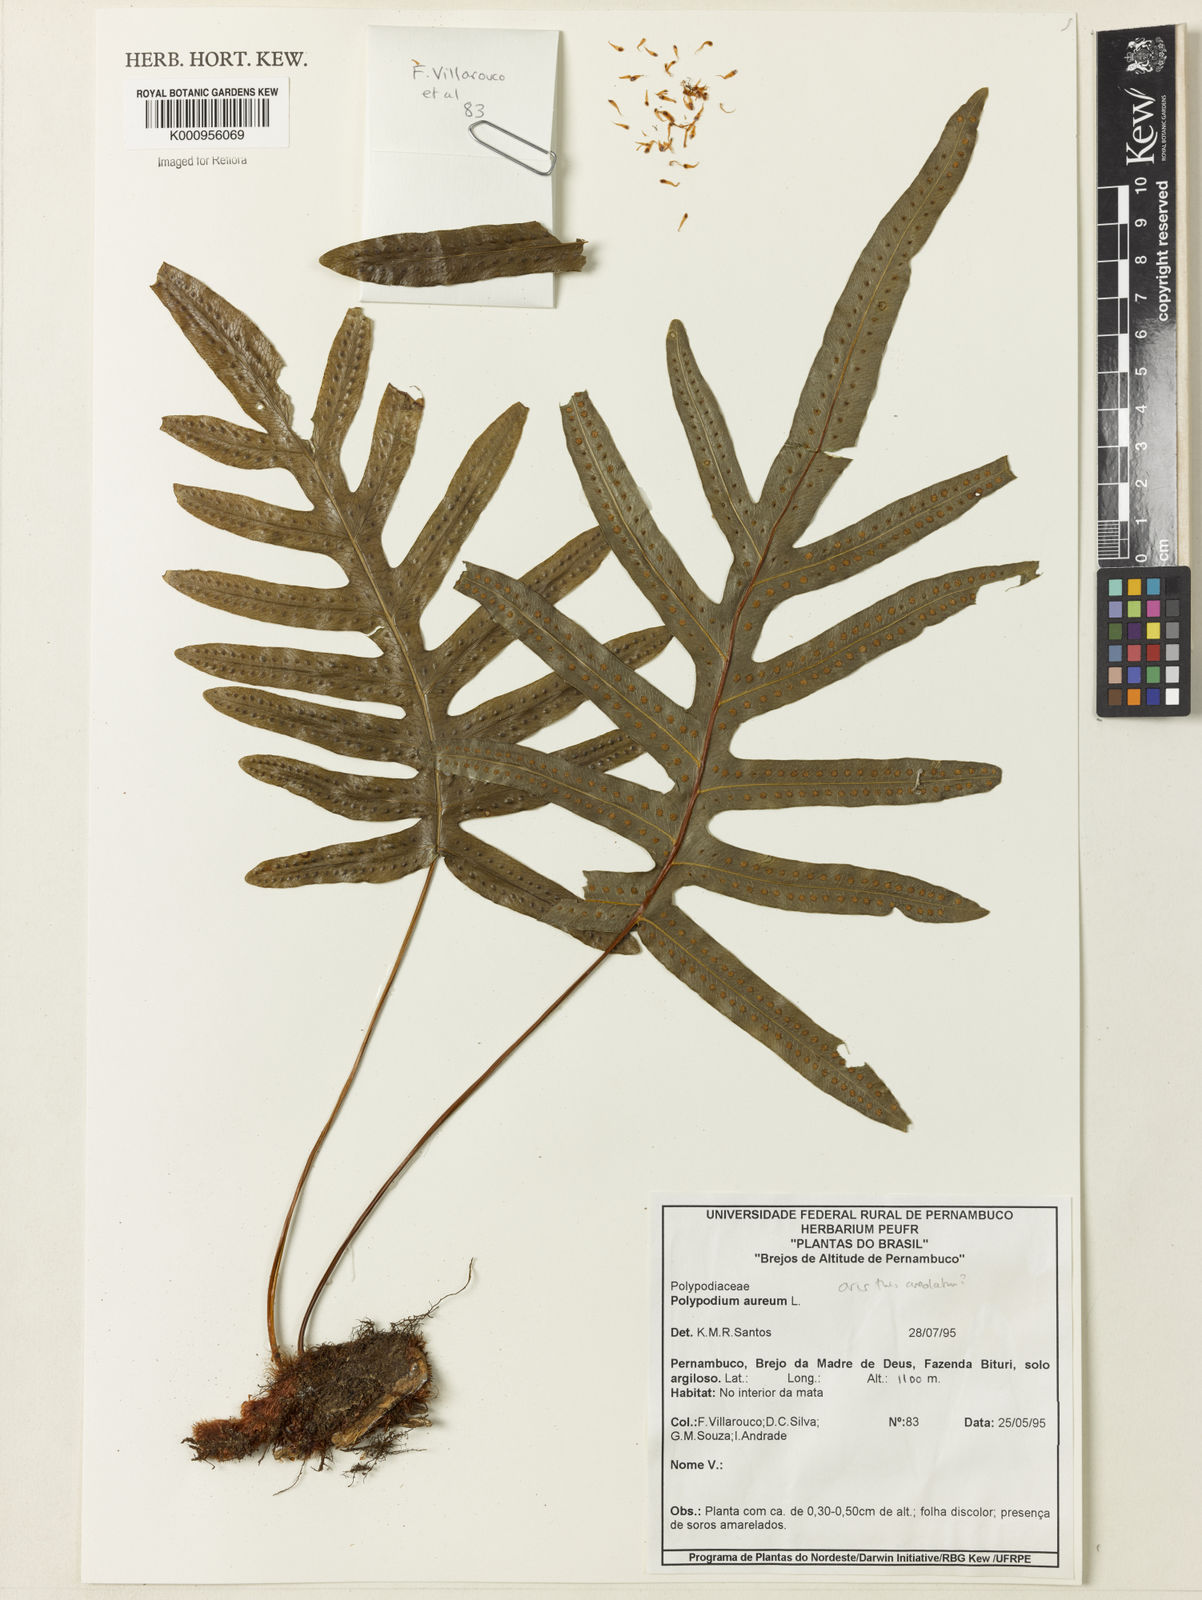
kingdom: Plantae
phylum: Tracheophyta
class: Polypodiopsida
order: Polypodiales
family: Polypodiaceae
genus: Phlebodium
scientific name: Phlebodium aureum
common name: Gold-foot fern
